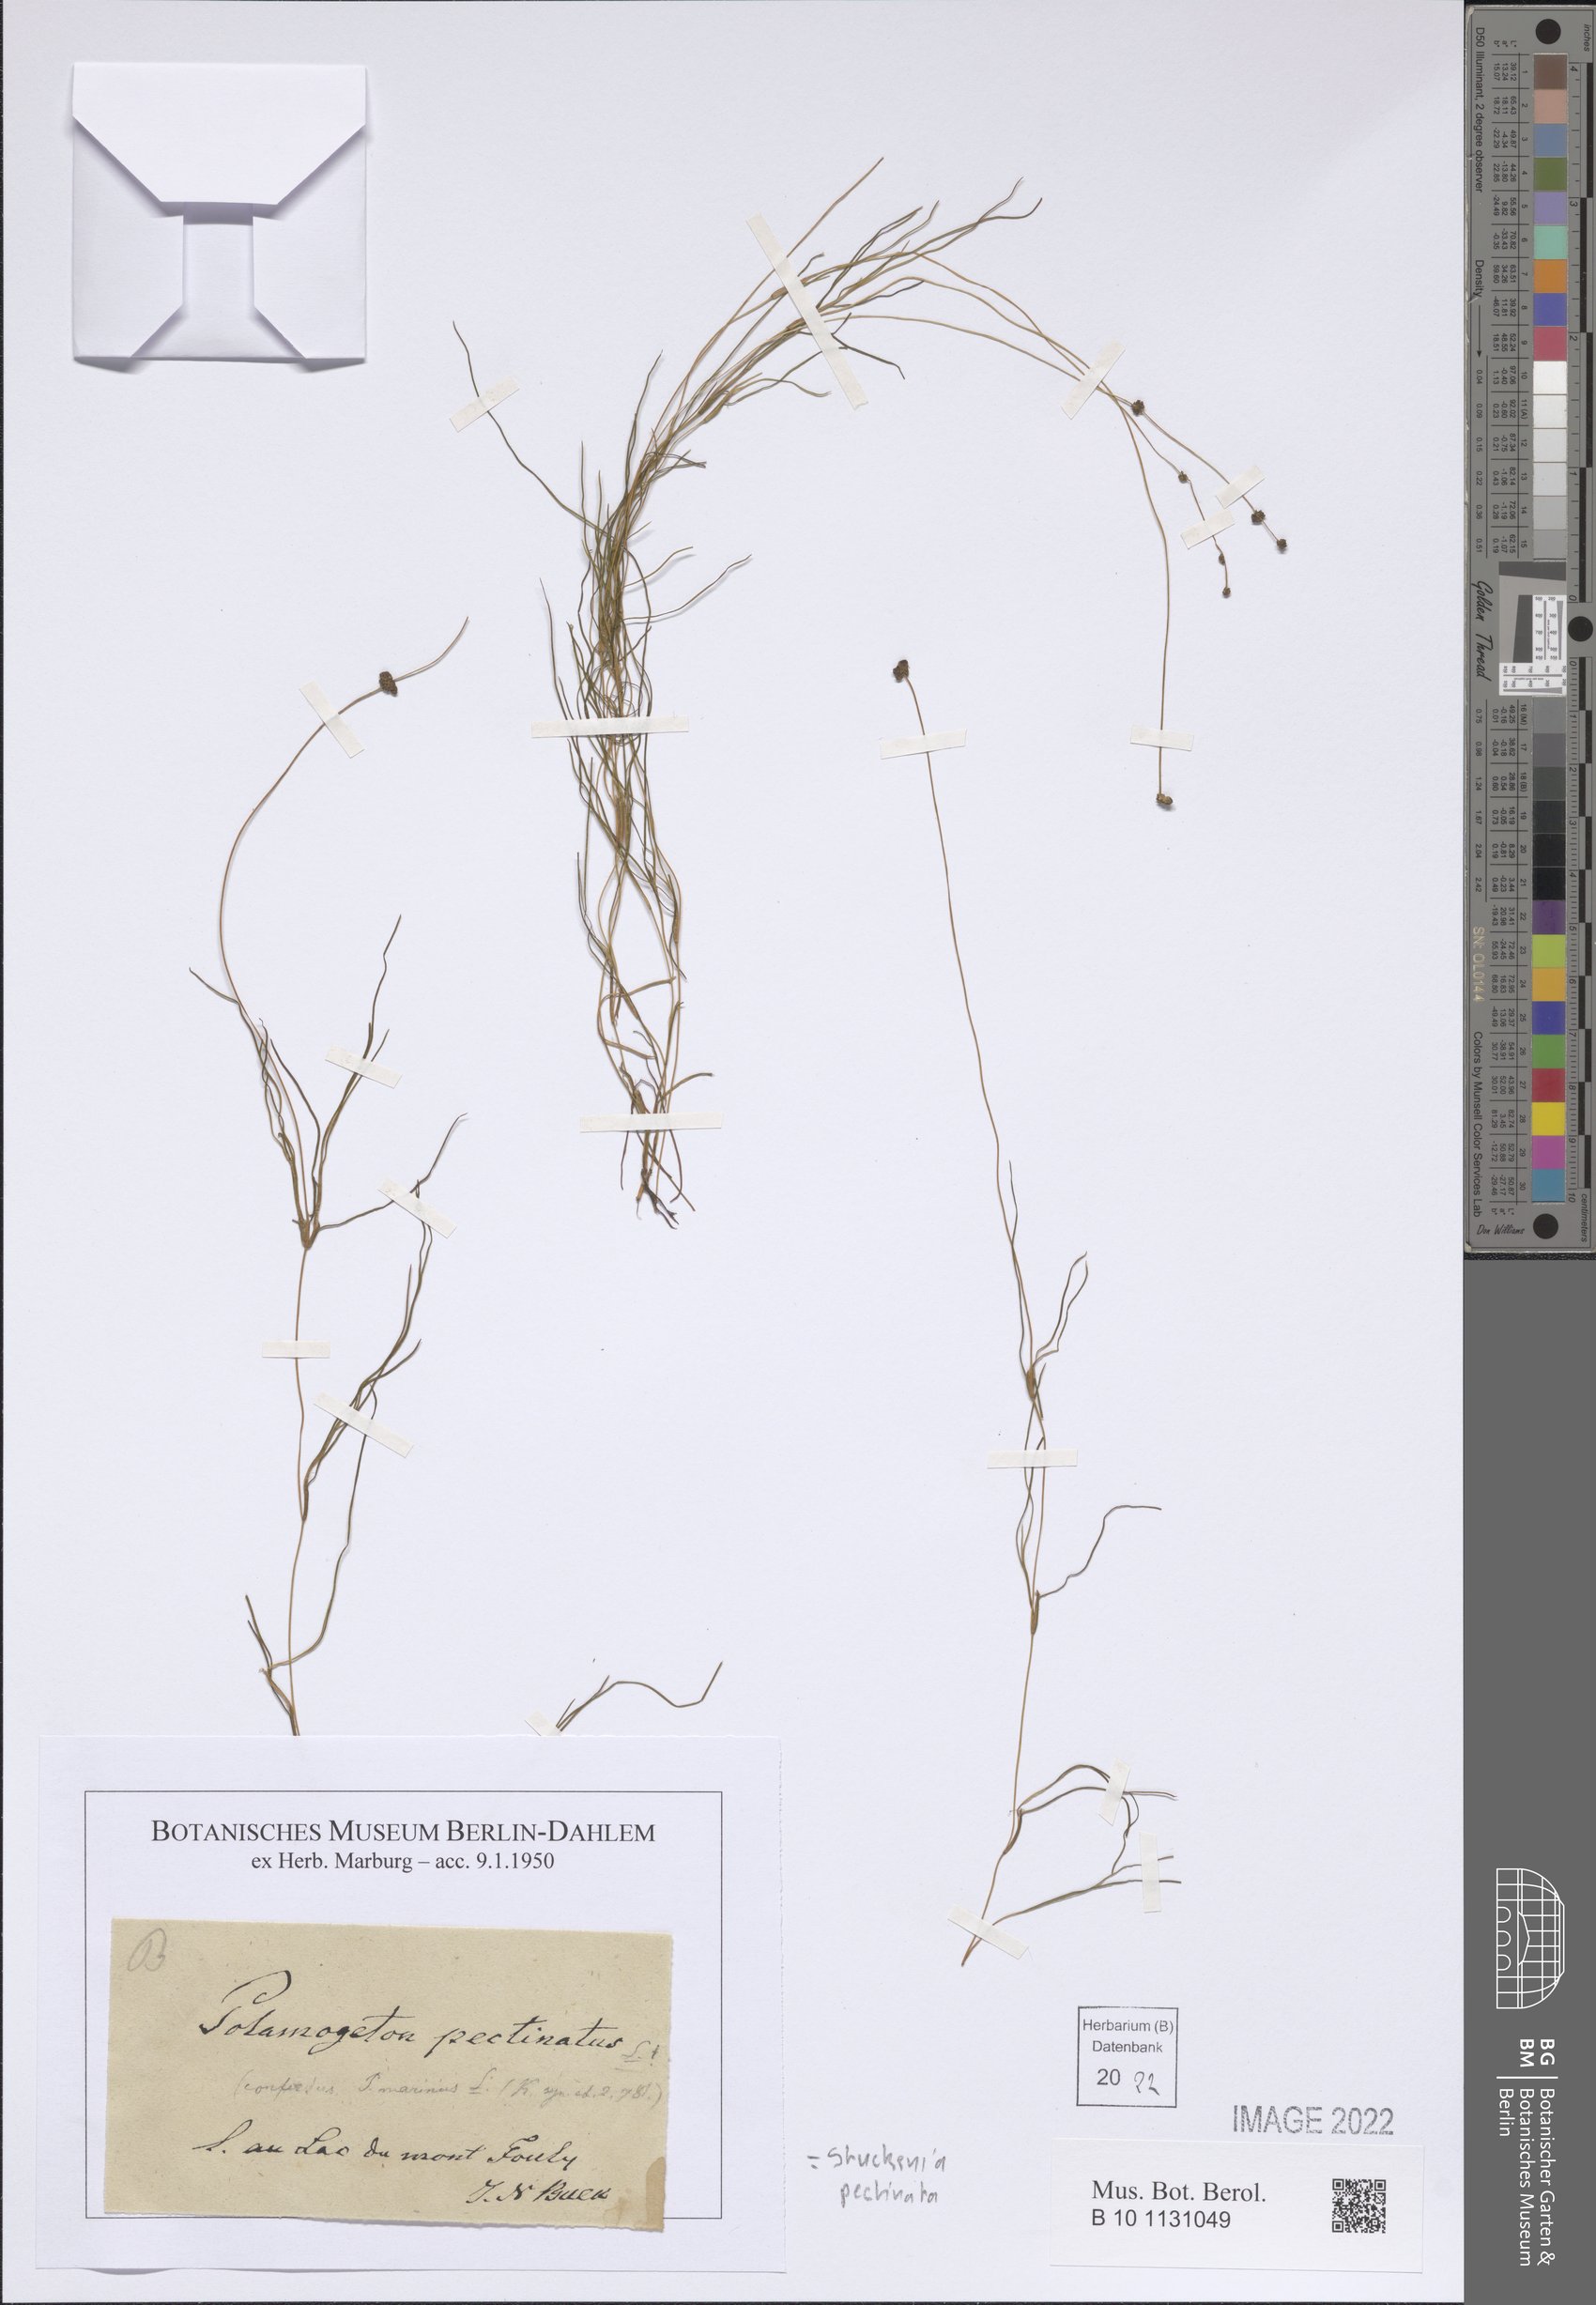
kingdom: Plantae
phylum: Tracheophyta
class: Liliopsida
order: Alismatales
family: Potamogetonaceae
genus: Stuckenia
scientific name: Stuckenia pectinata
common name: Sago pondweed
